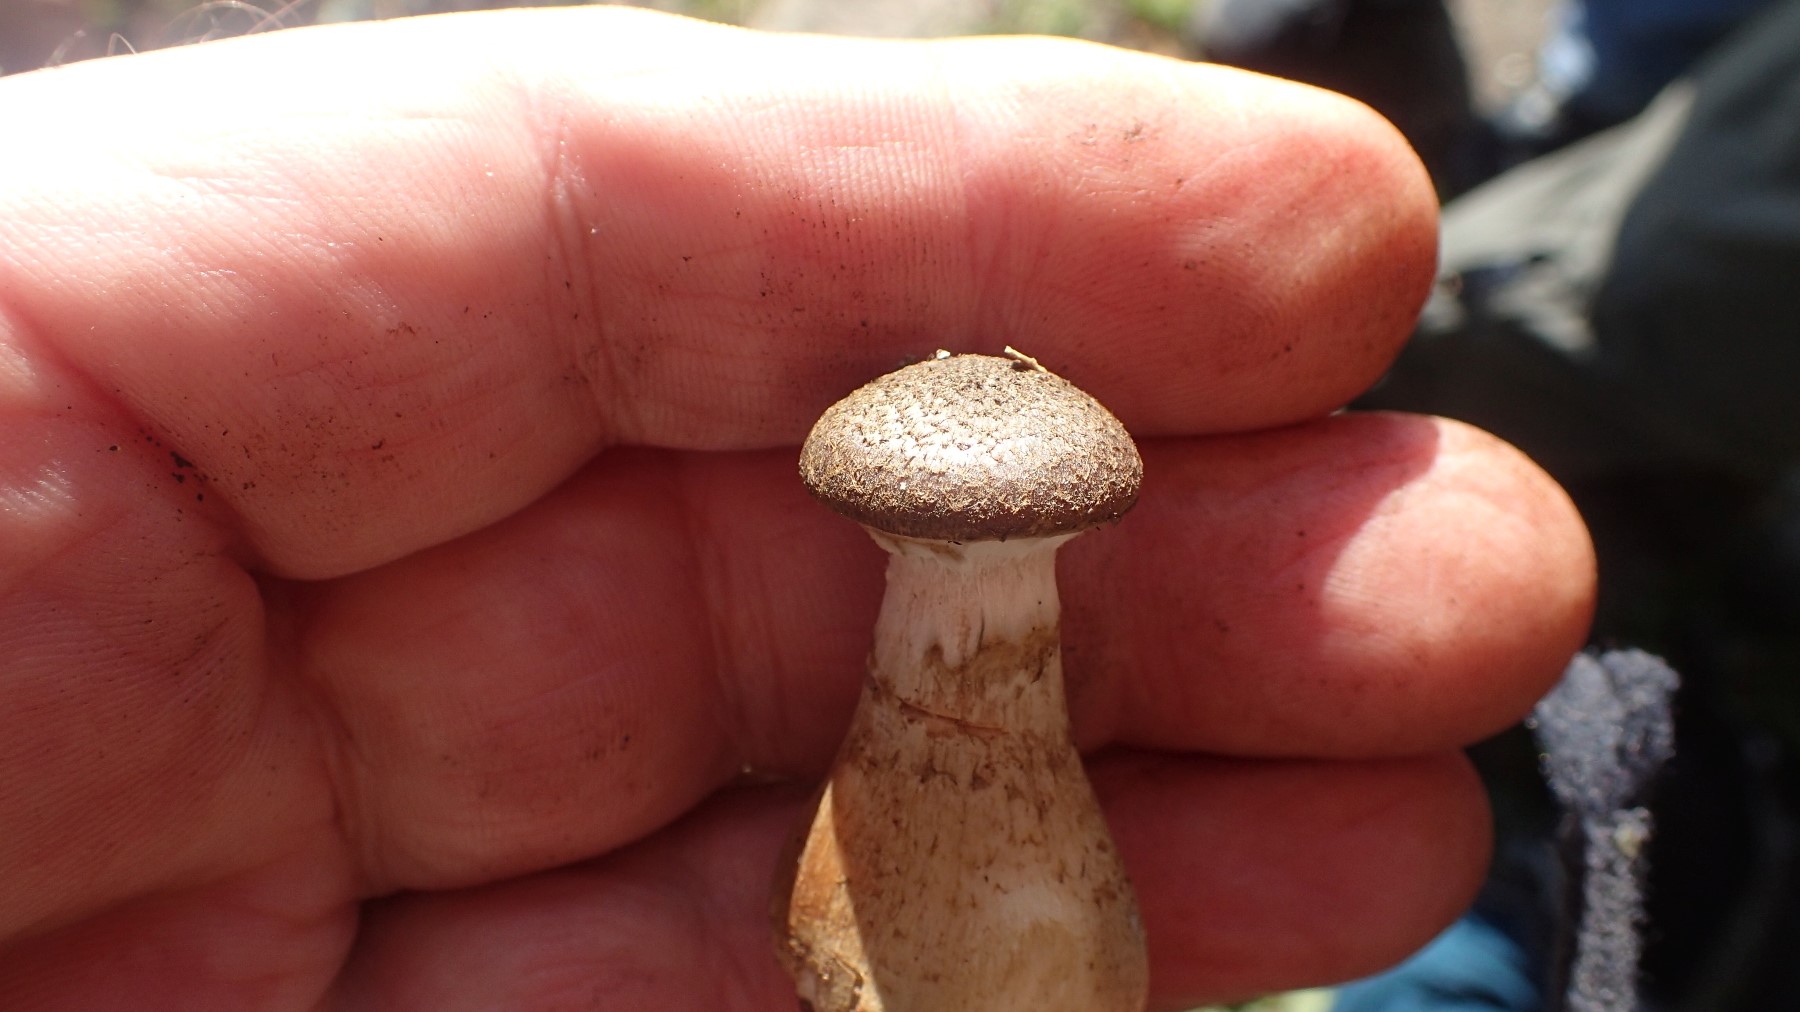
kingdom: Fungi
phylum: Basidiomycota
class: Agaricomycetes
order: Agaricales
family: Physalacriaceae
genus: Armillaria
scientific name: Armillaria lutea
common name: køllestokket honningsvamp
